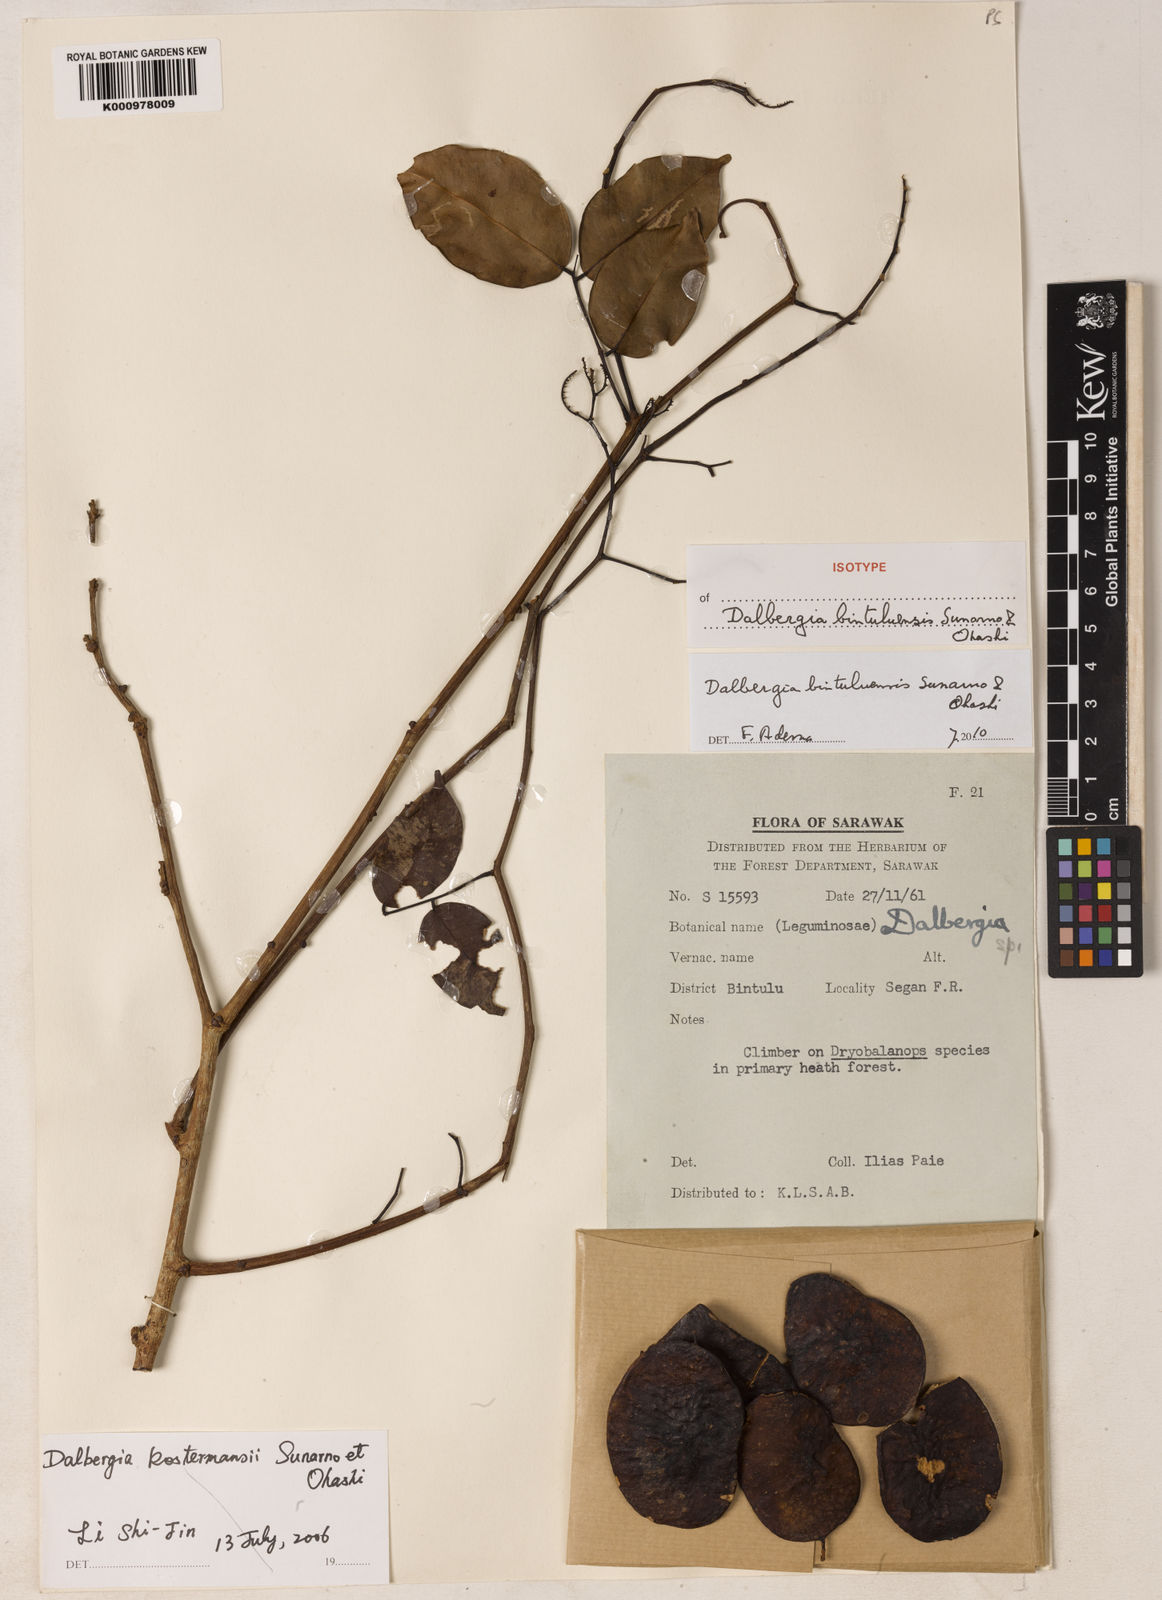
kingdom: Plantae
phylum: Tracheophyta
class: Magnoliopsida
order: Fabales
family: Fabaceae
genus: Dalbergia
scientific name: Dalbergia bintuluensis
